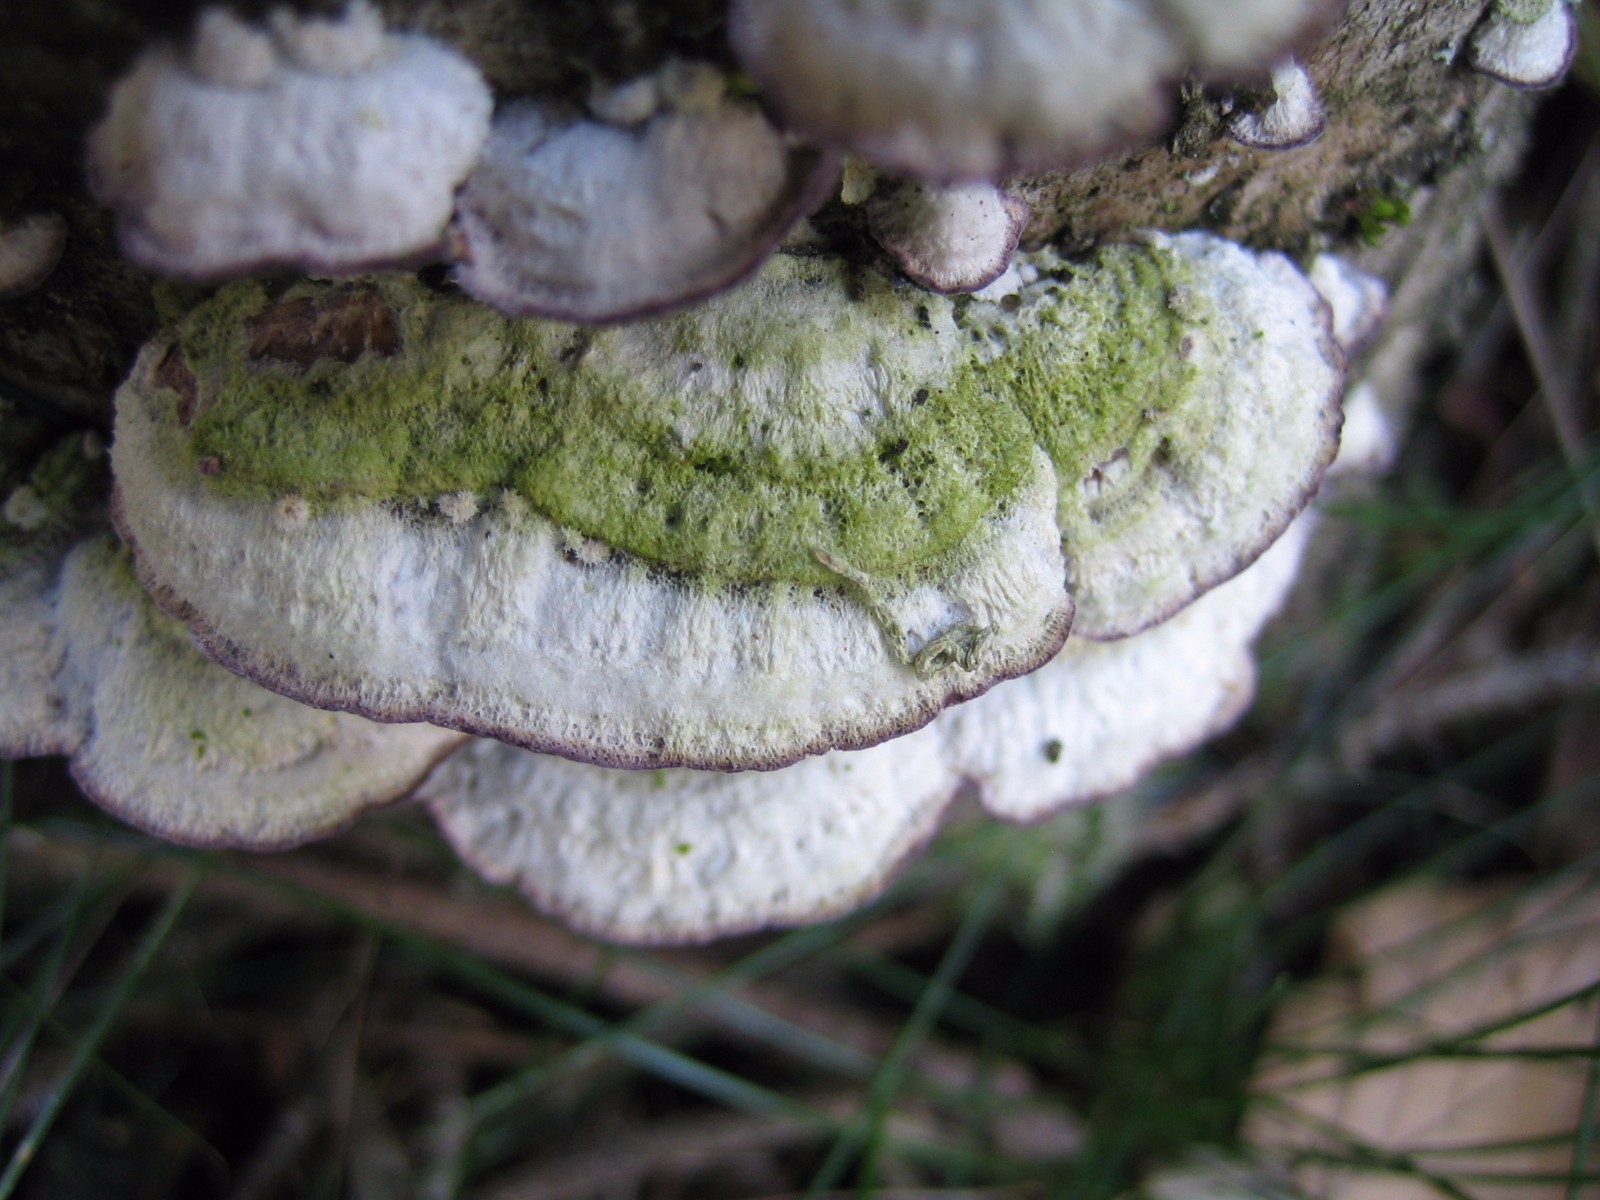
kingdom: Fungi
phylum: Basidiomycota
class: Agaricomycetes
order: Hymenochaetales
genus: Trichaptum
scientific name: Trichaptum abietinum
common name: almindelig violporesvamp
